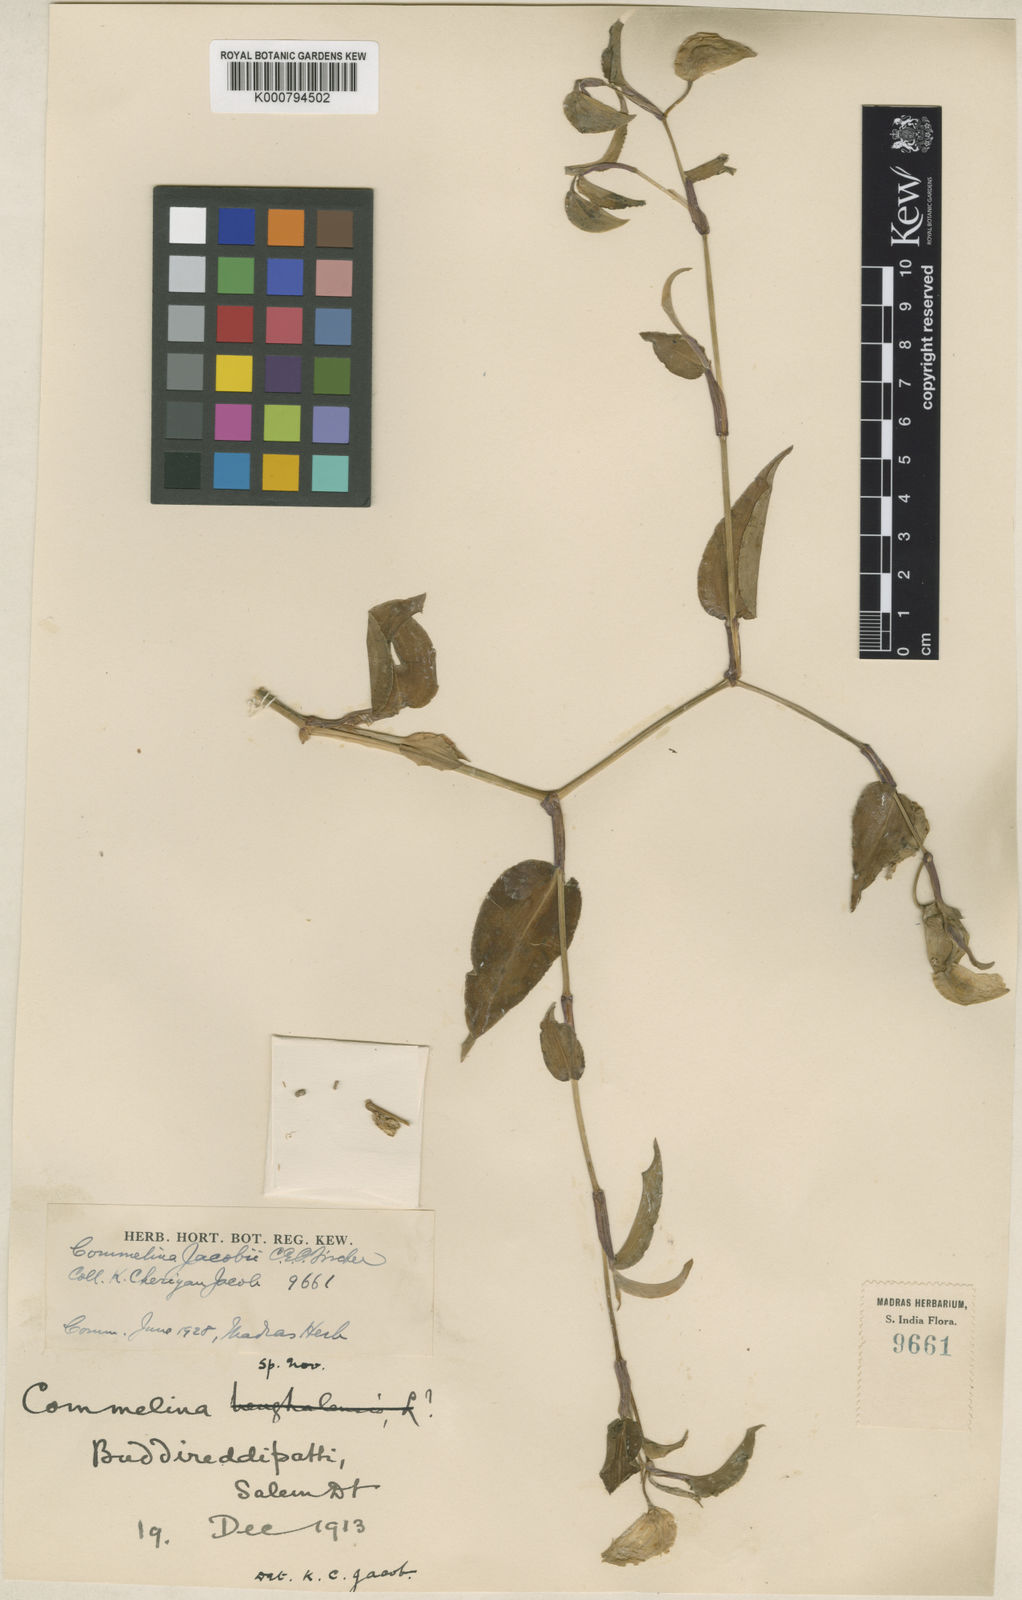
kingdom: Plantae
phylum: Tracheophyta
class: Liliopsida
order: Commelinales
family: Commelinaceae
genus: Commelina
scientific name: Commelina petersii
